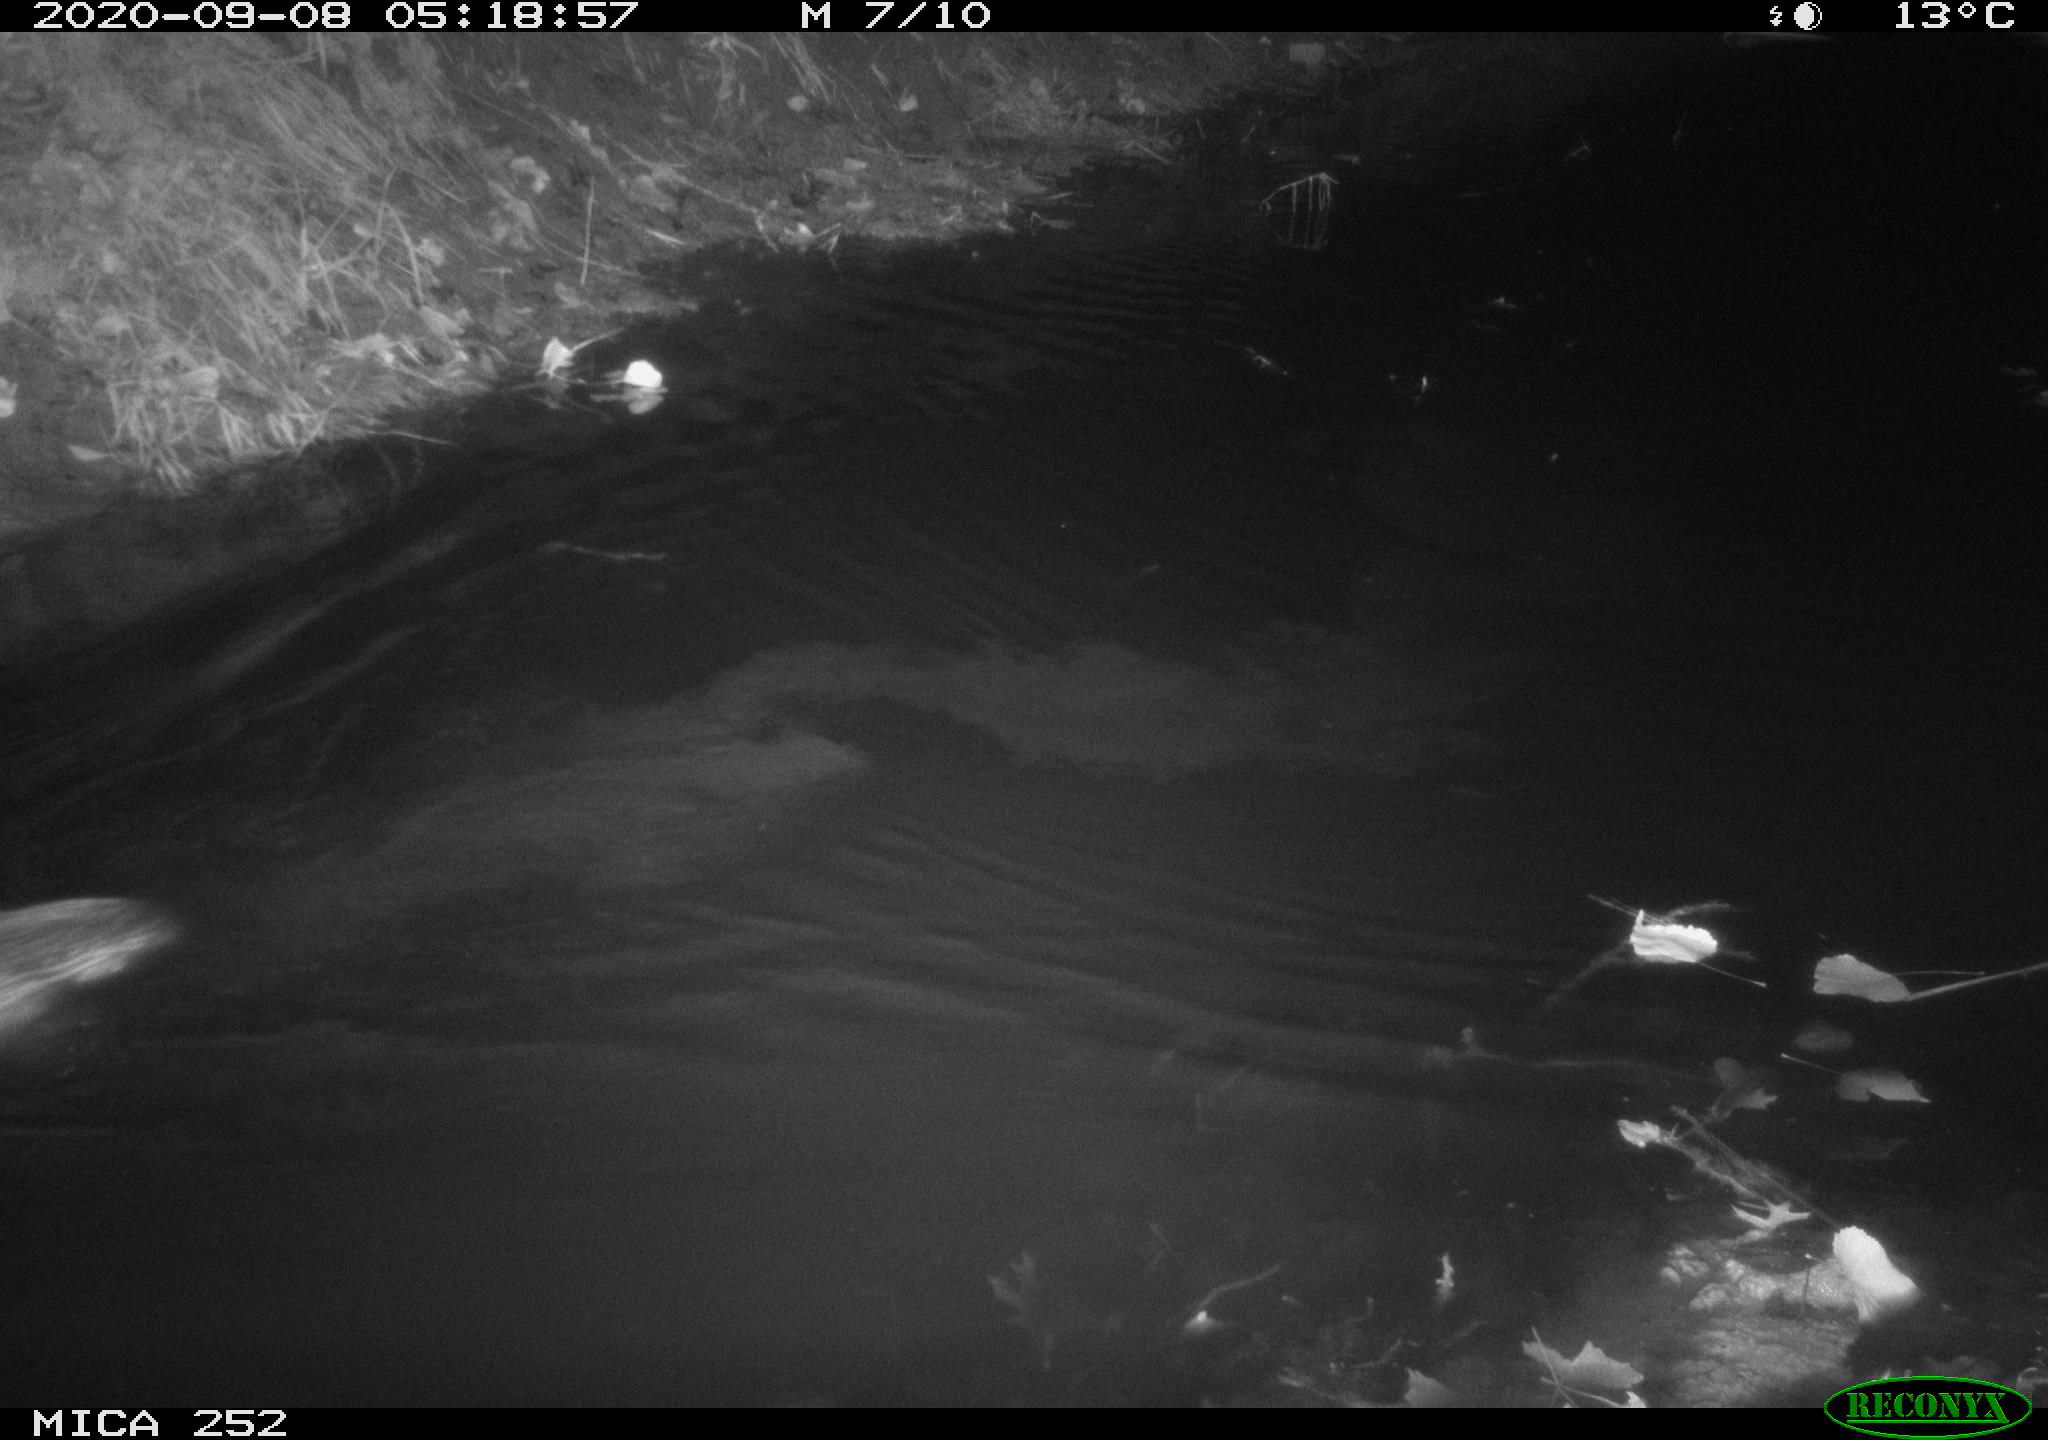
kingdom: Animalia
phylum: Chordata
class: Mammalia
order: Rodentia
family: Castoridae
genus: Castor
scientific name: Castor fiber
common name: Eurasian beaver
